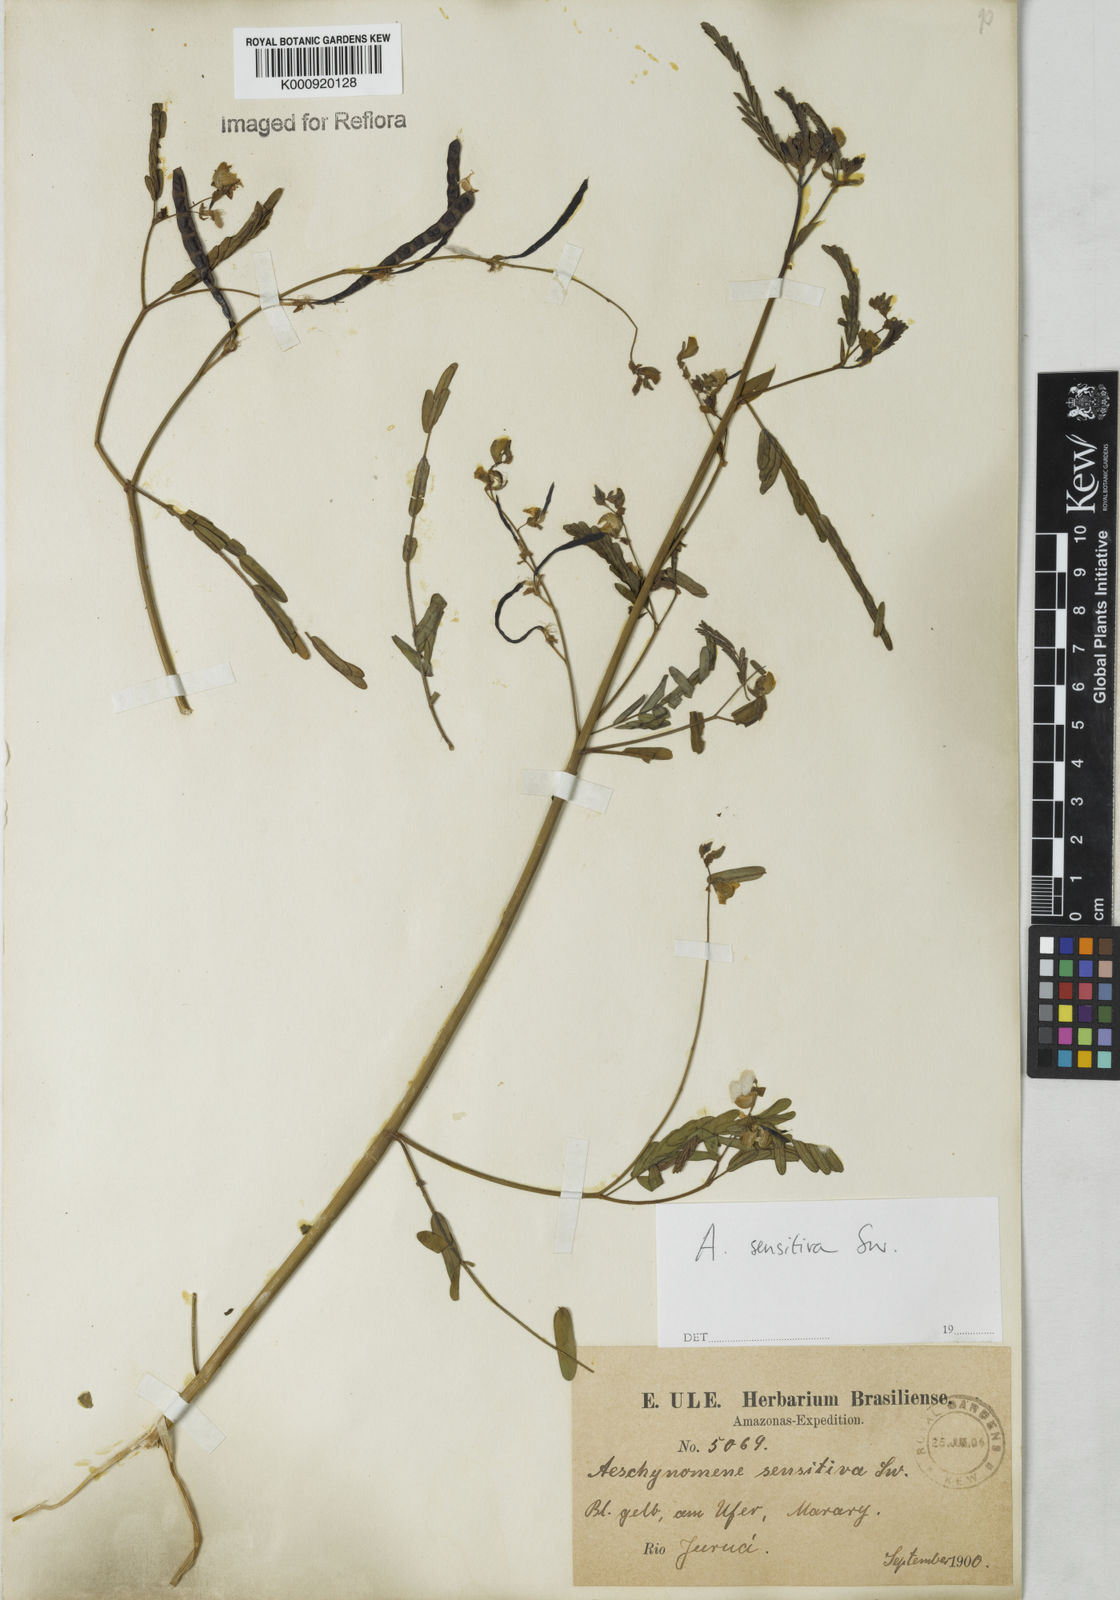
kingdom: Plantae
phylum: Tracheophyta
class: Magnoliopsida
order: Fabales
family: Fabaceae
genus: Aeschynomene
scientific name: Aeschynomene sensitiva
